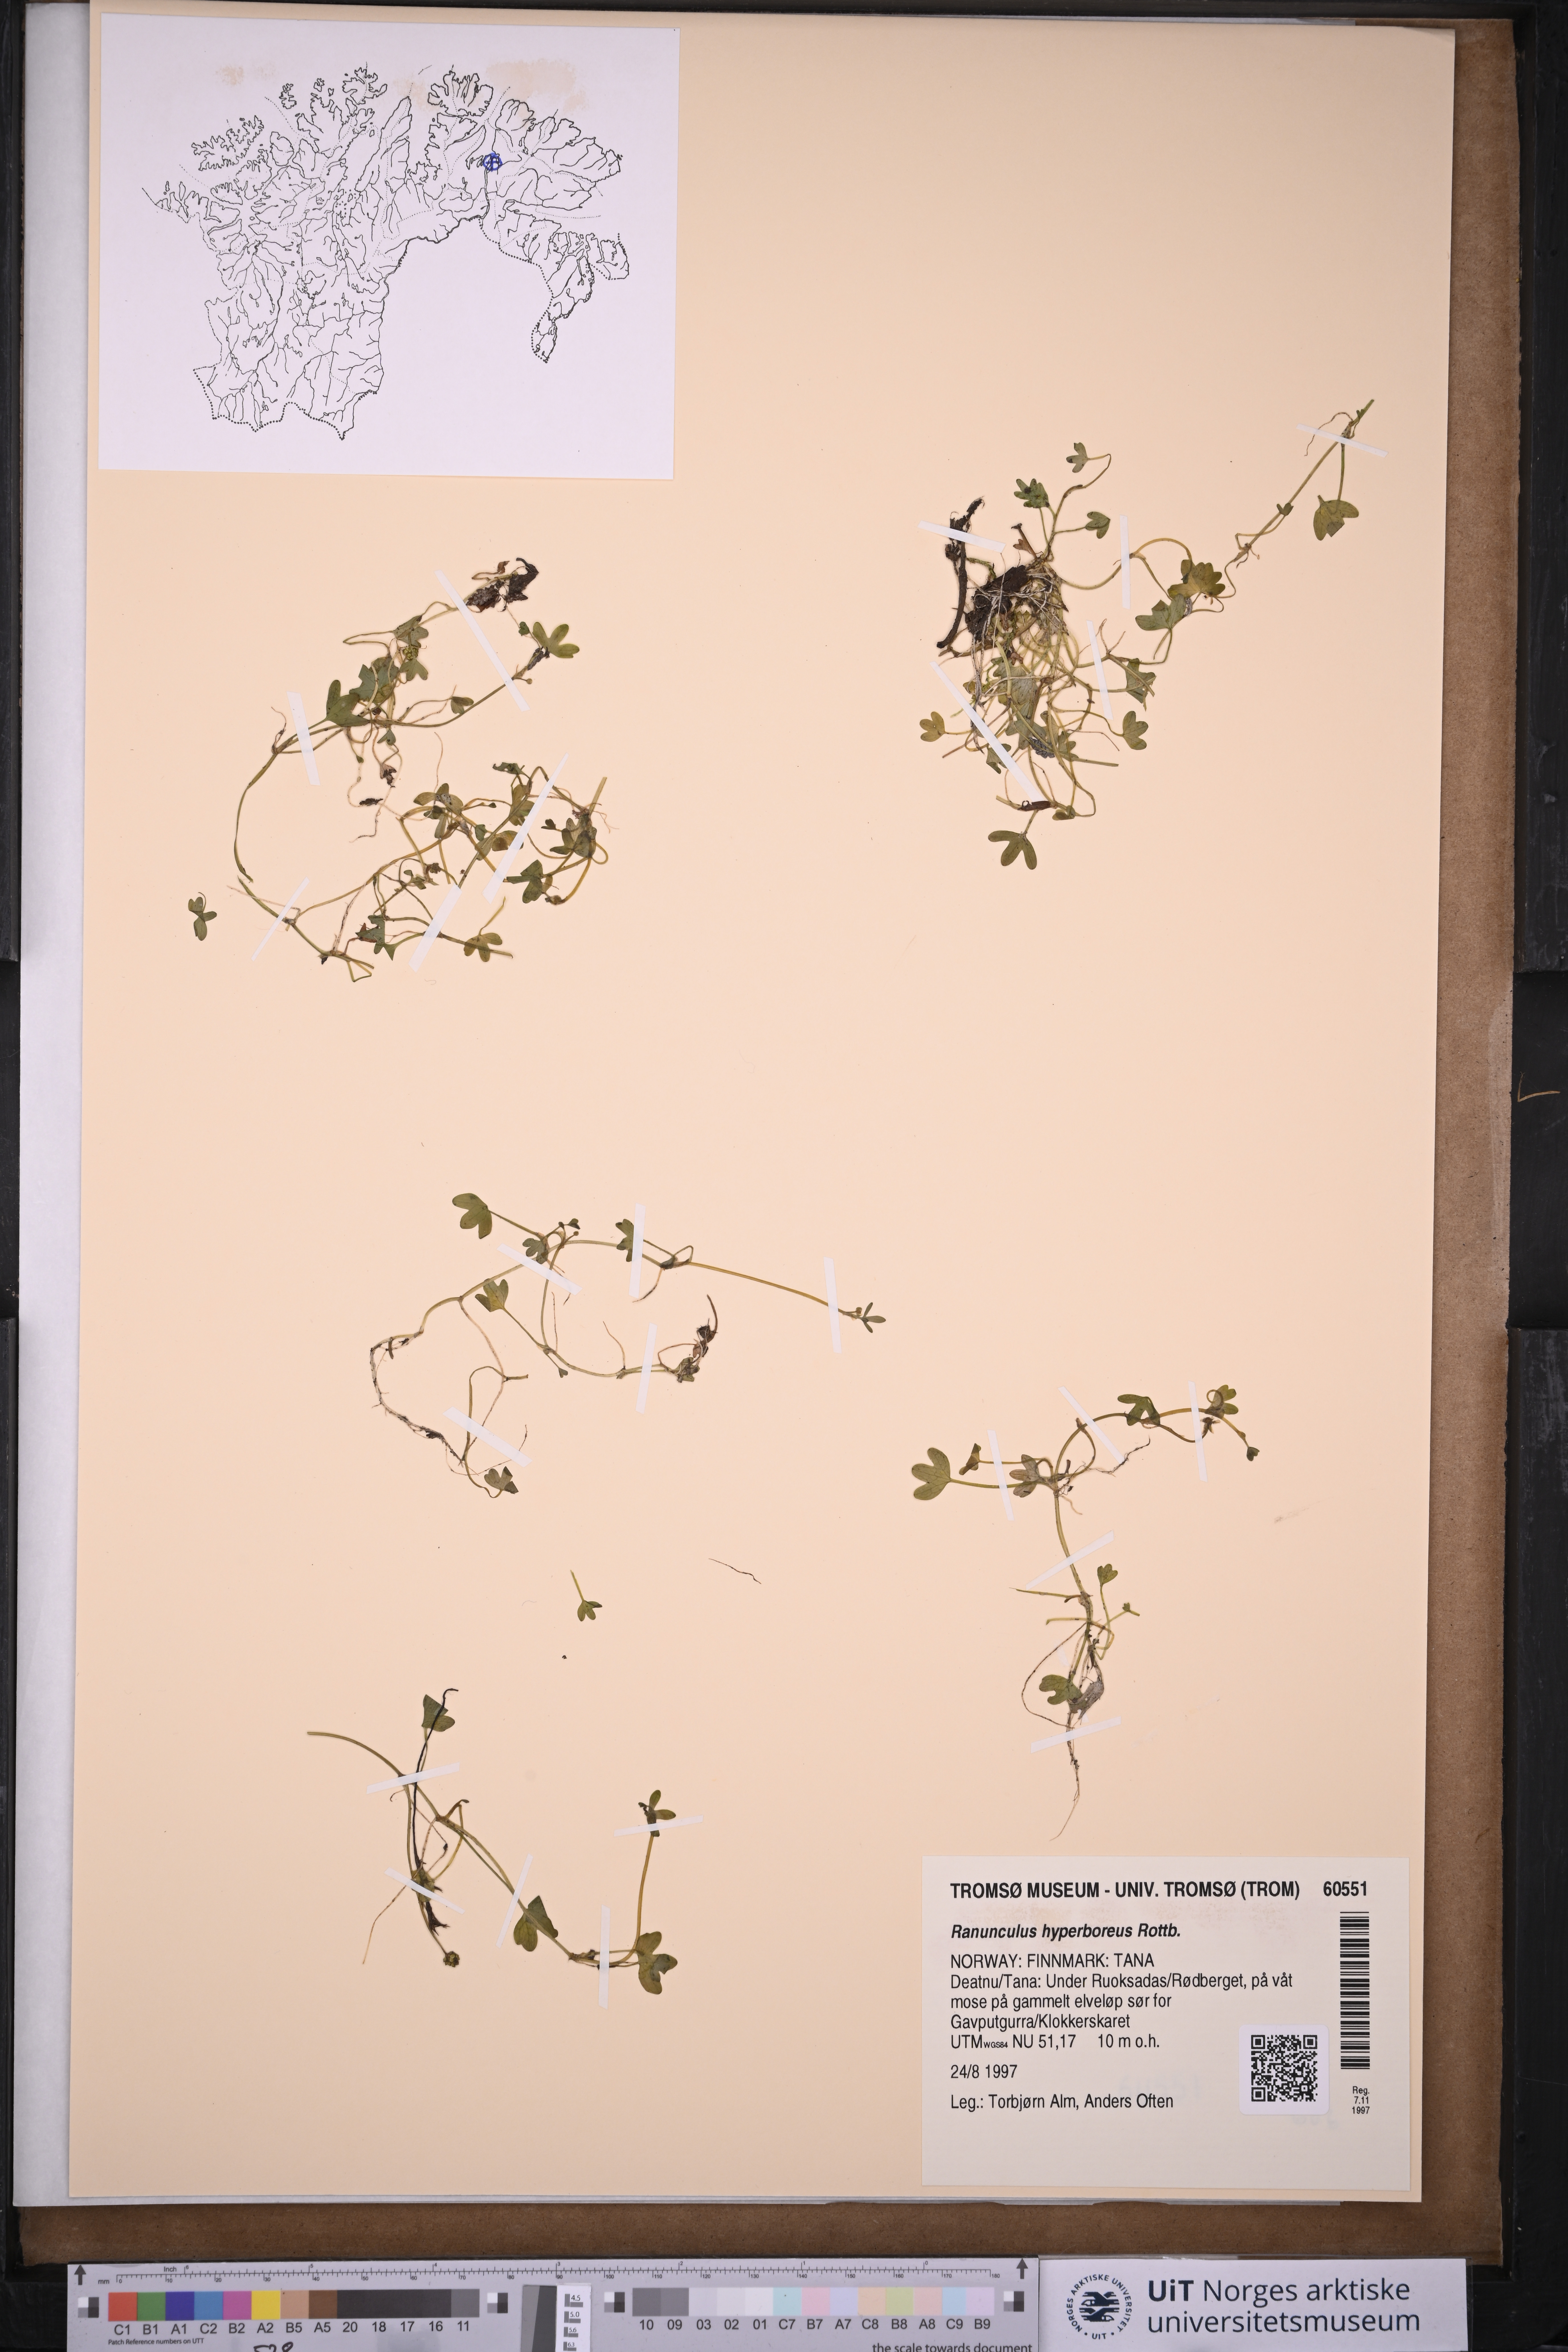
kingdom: Plantae
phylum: Tracheophyta
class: Magnoliopsida
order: Ranunculales
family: Ranunculaceae
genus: Ranunculus
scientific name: Ranunculus hyperboreus
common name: Arctic buttercup
